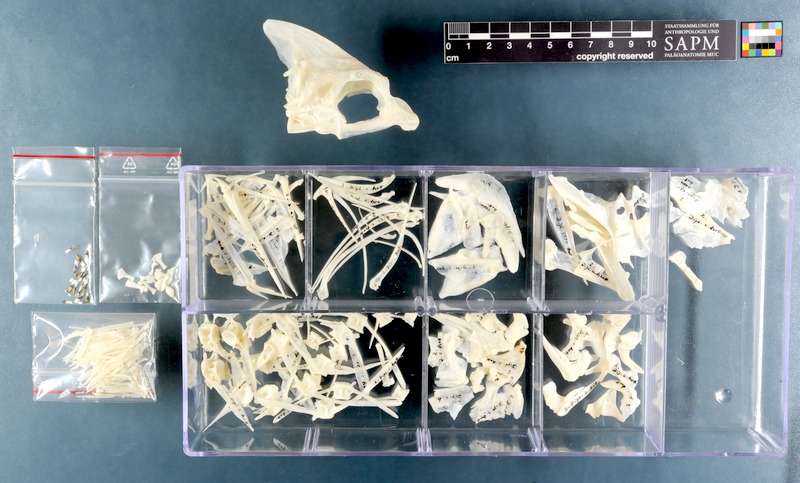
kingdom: Animalia
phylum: Chordata
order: Perciformes
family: Sparidae
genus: Diplodus
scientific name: Diplodus hottentotus
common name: Zebra
